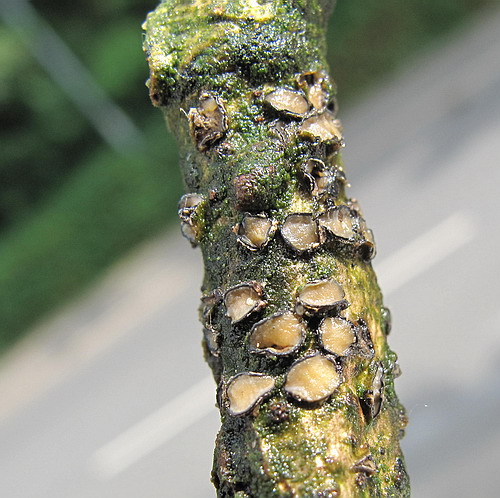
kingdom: Fungi
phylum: Ascomycota
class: Leotiomycetes
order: Rhytismatales
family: Rhytismataceae
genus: Colpoma
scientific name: Colpoma quercinum
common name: ege-sprækkeskive
